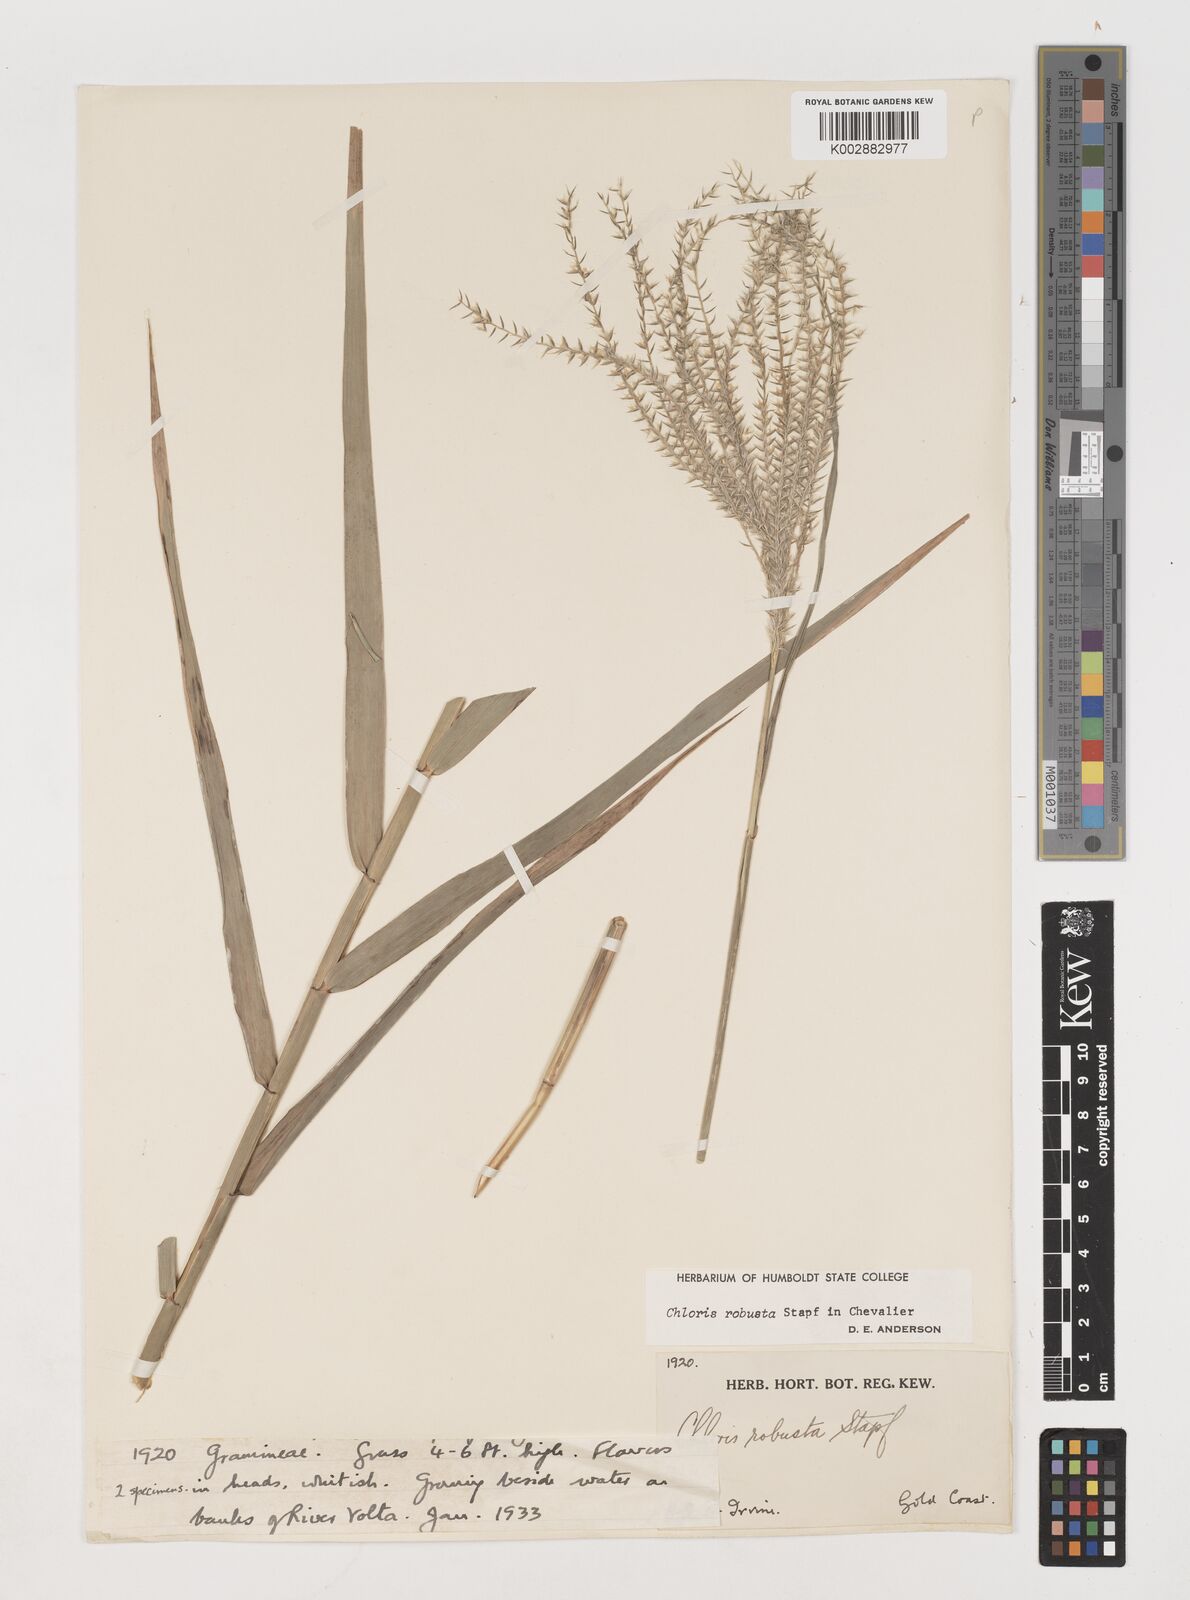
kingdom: Plantae
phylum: Tracheophyta
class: Liliopsida
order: Poales
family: Poaceae
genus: Chloris
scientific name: Chloris robusta
